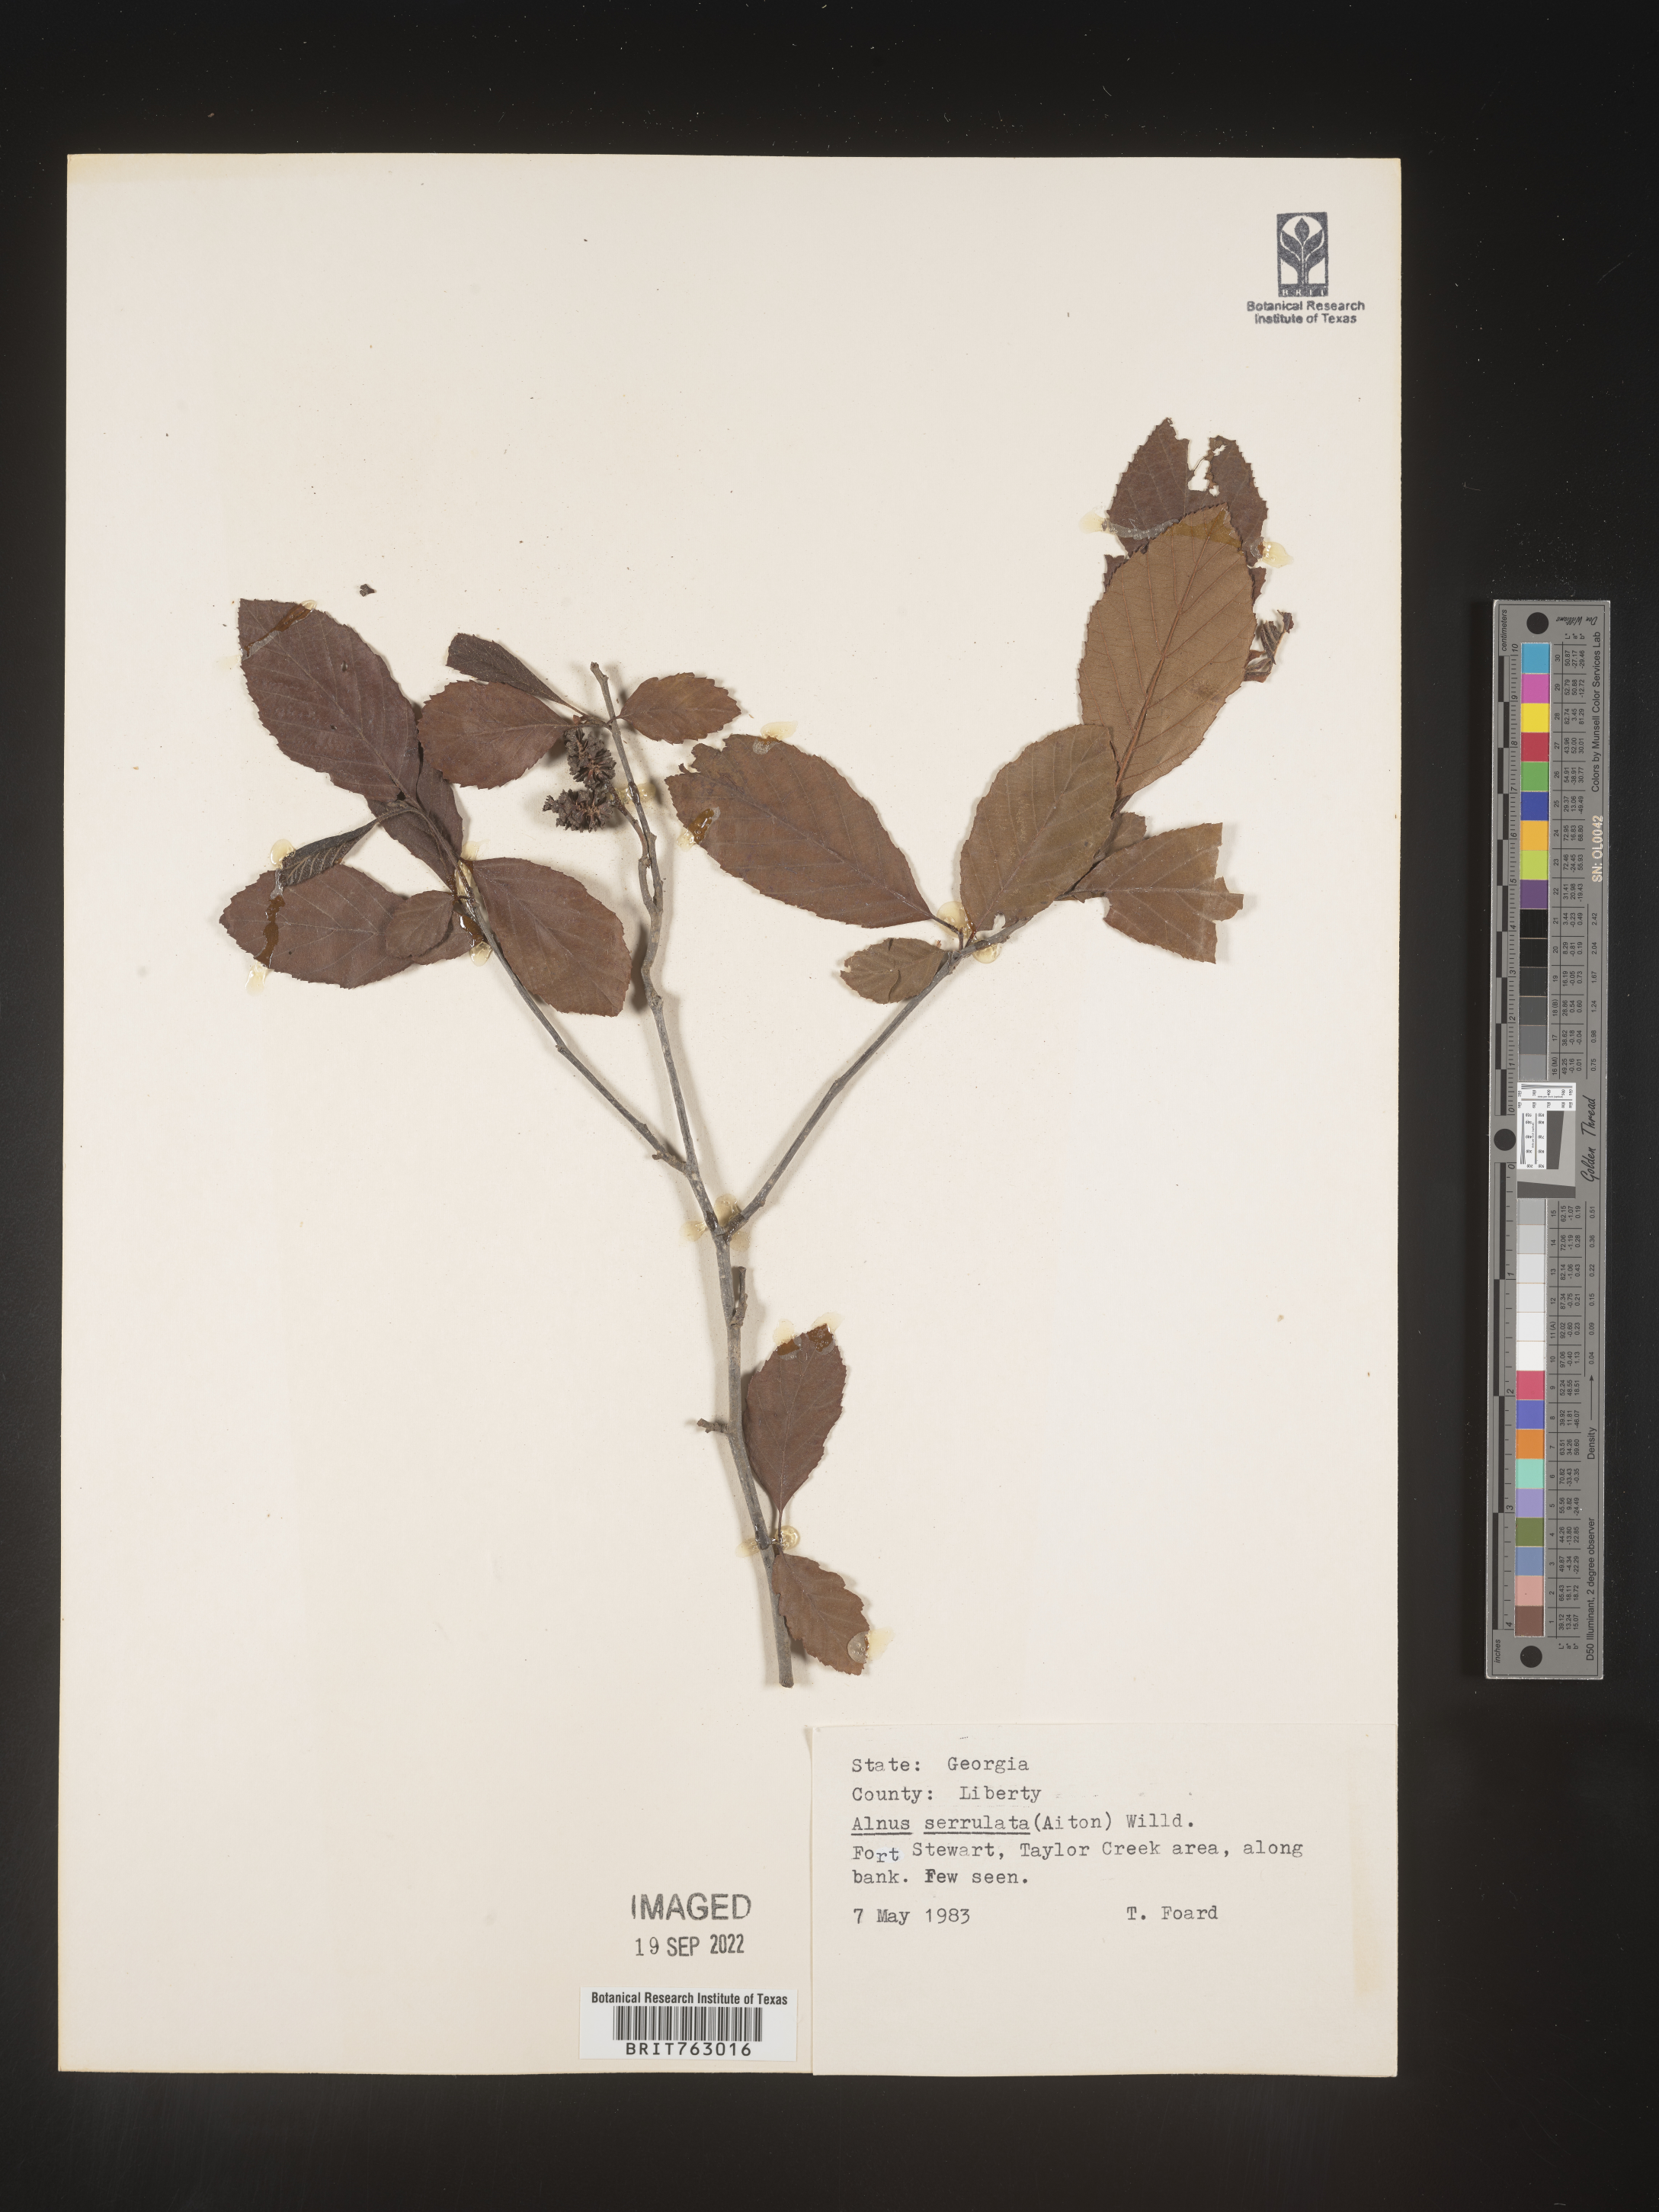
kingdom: Plantae
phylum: Tracheophyta
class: Magnoliopsida
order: Fagales
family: Betulaceae
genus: Alnus
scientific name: Alnus serrulata
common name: Hazel alder
